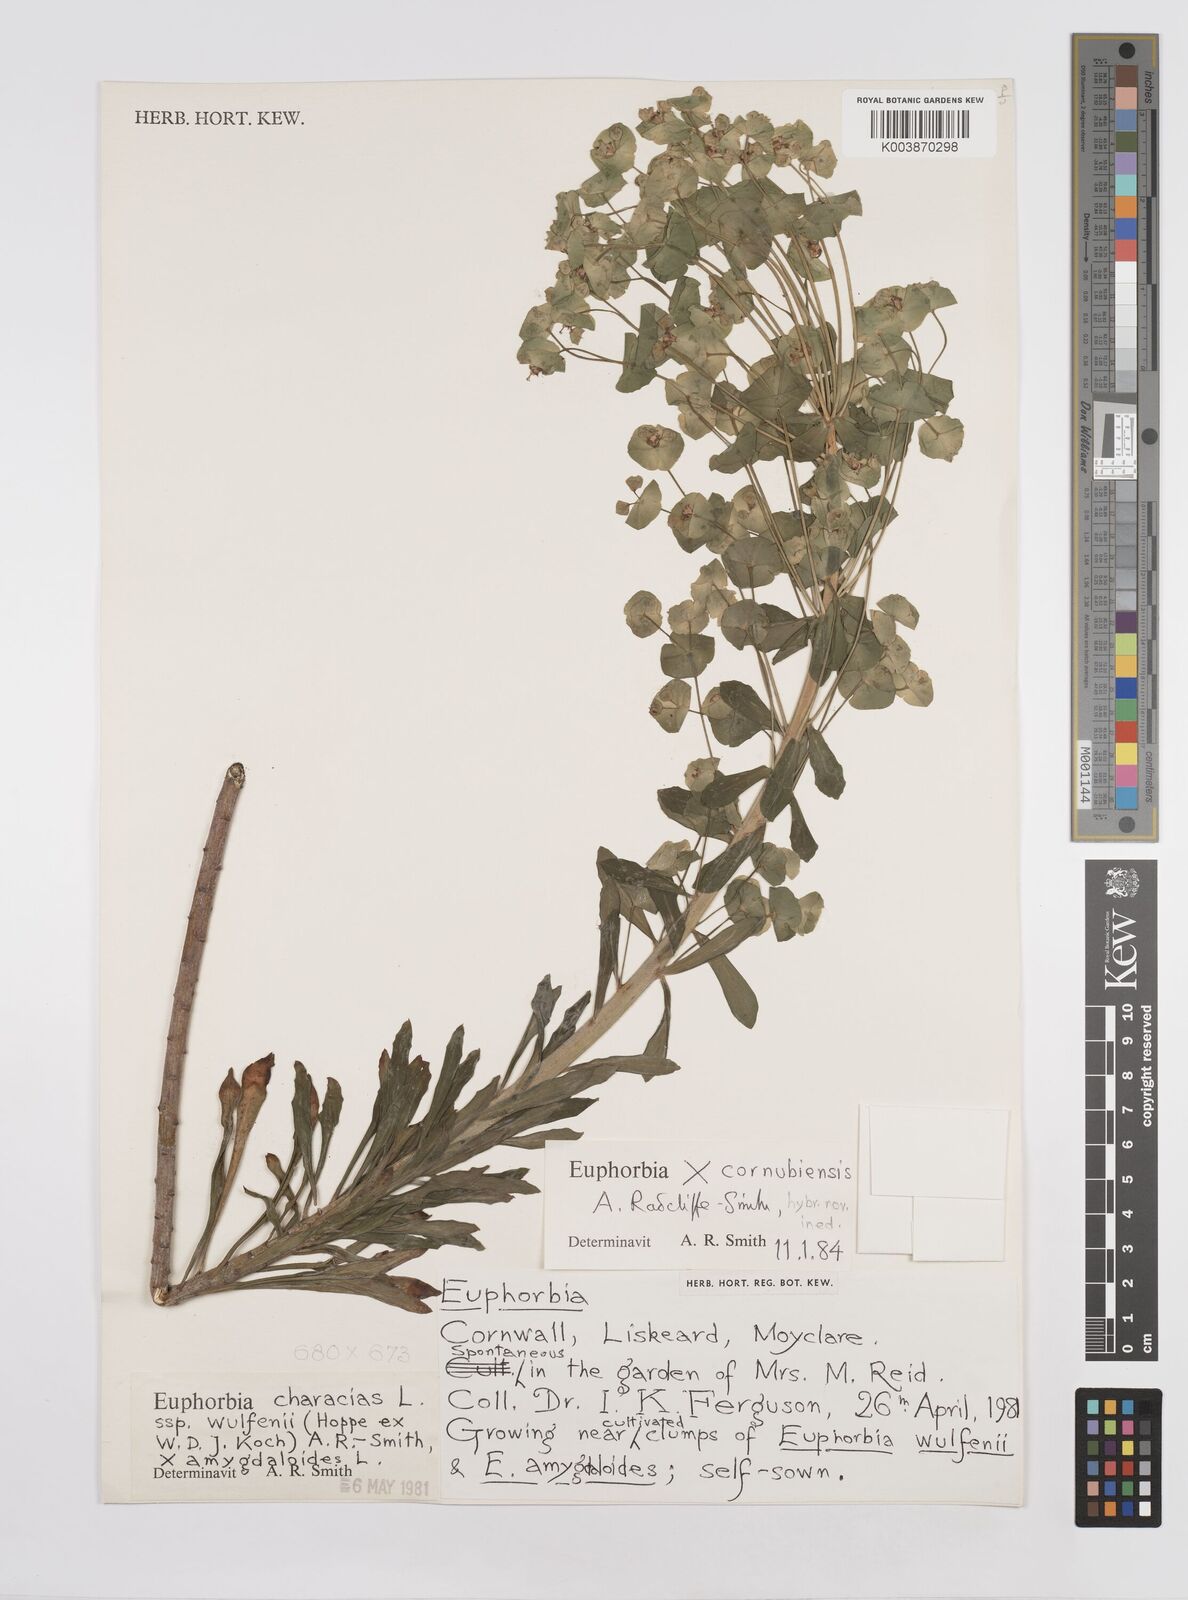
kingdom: Plantae
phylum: Tracheophyta
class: Magnoliopsida
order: Malpighiales
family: Euphorbiaceae
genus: Euphorbia
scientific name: Euphorbia martini
